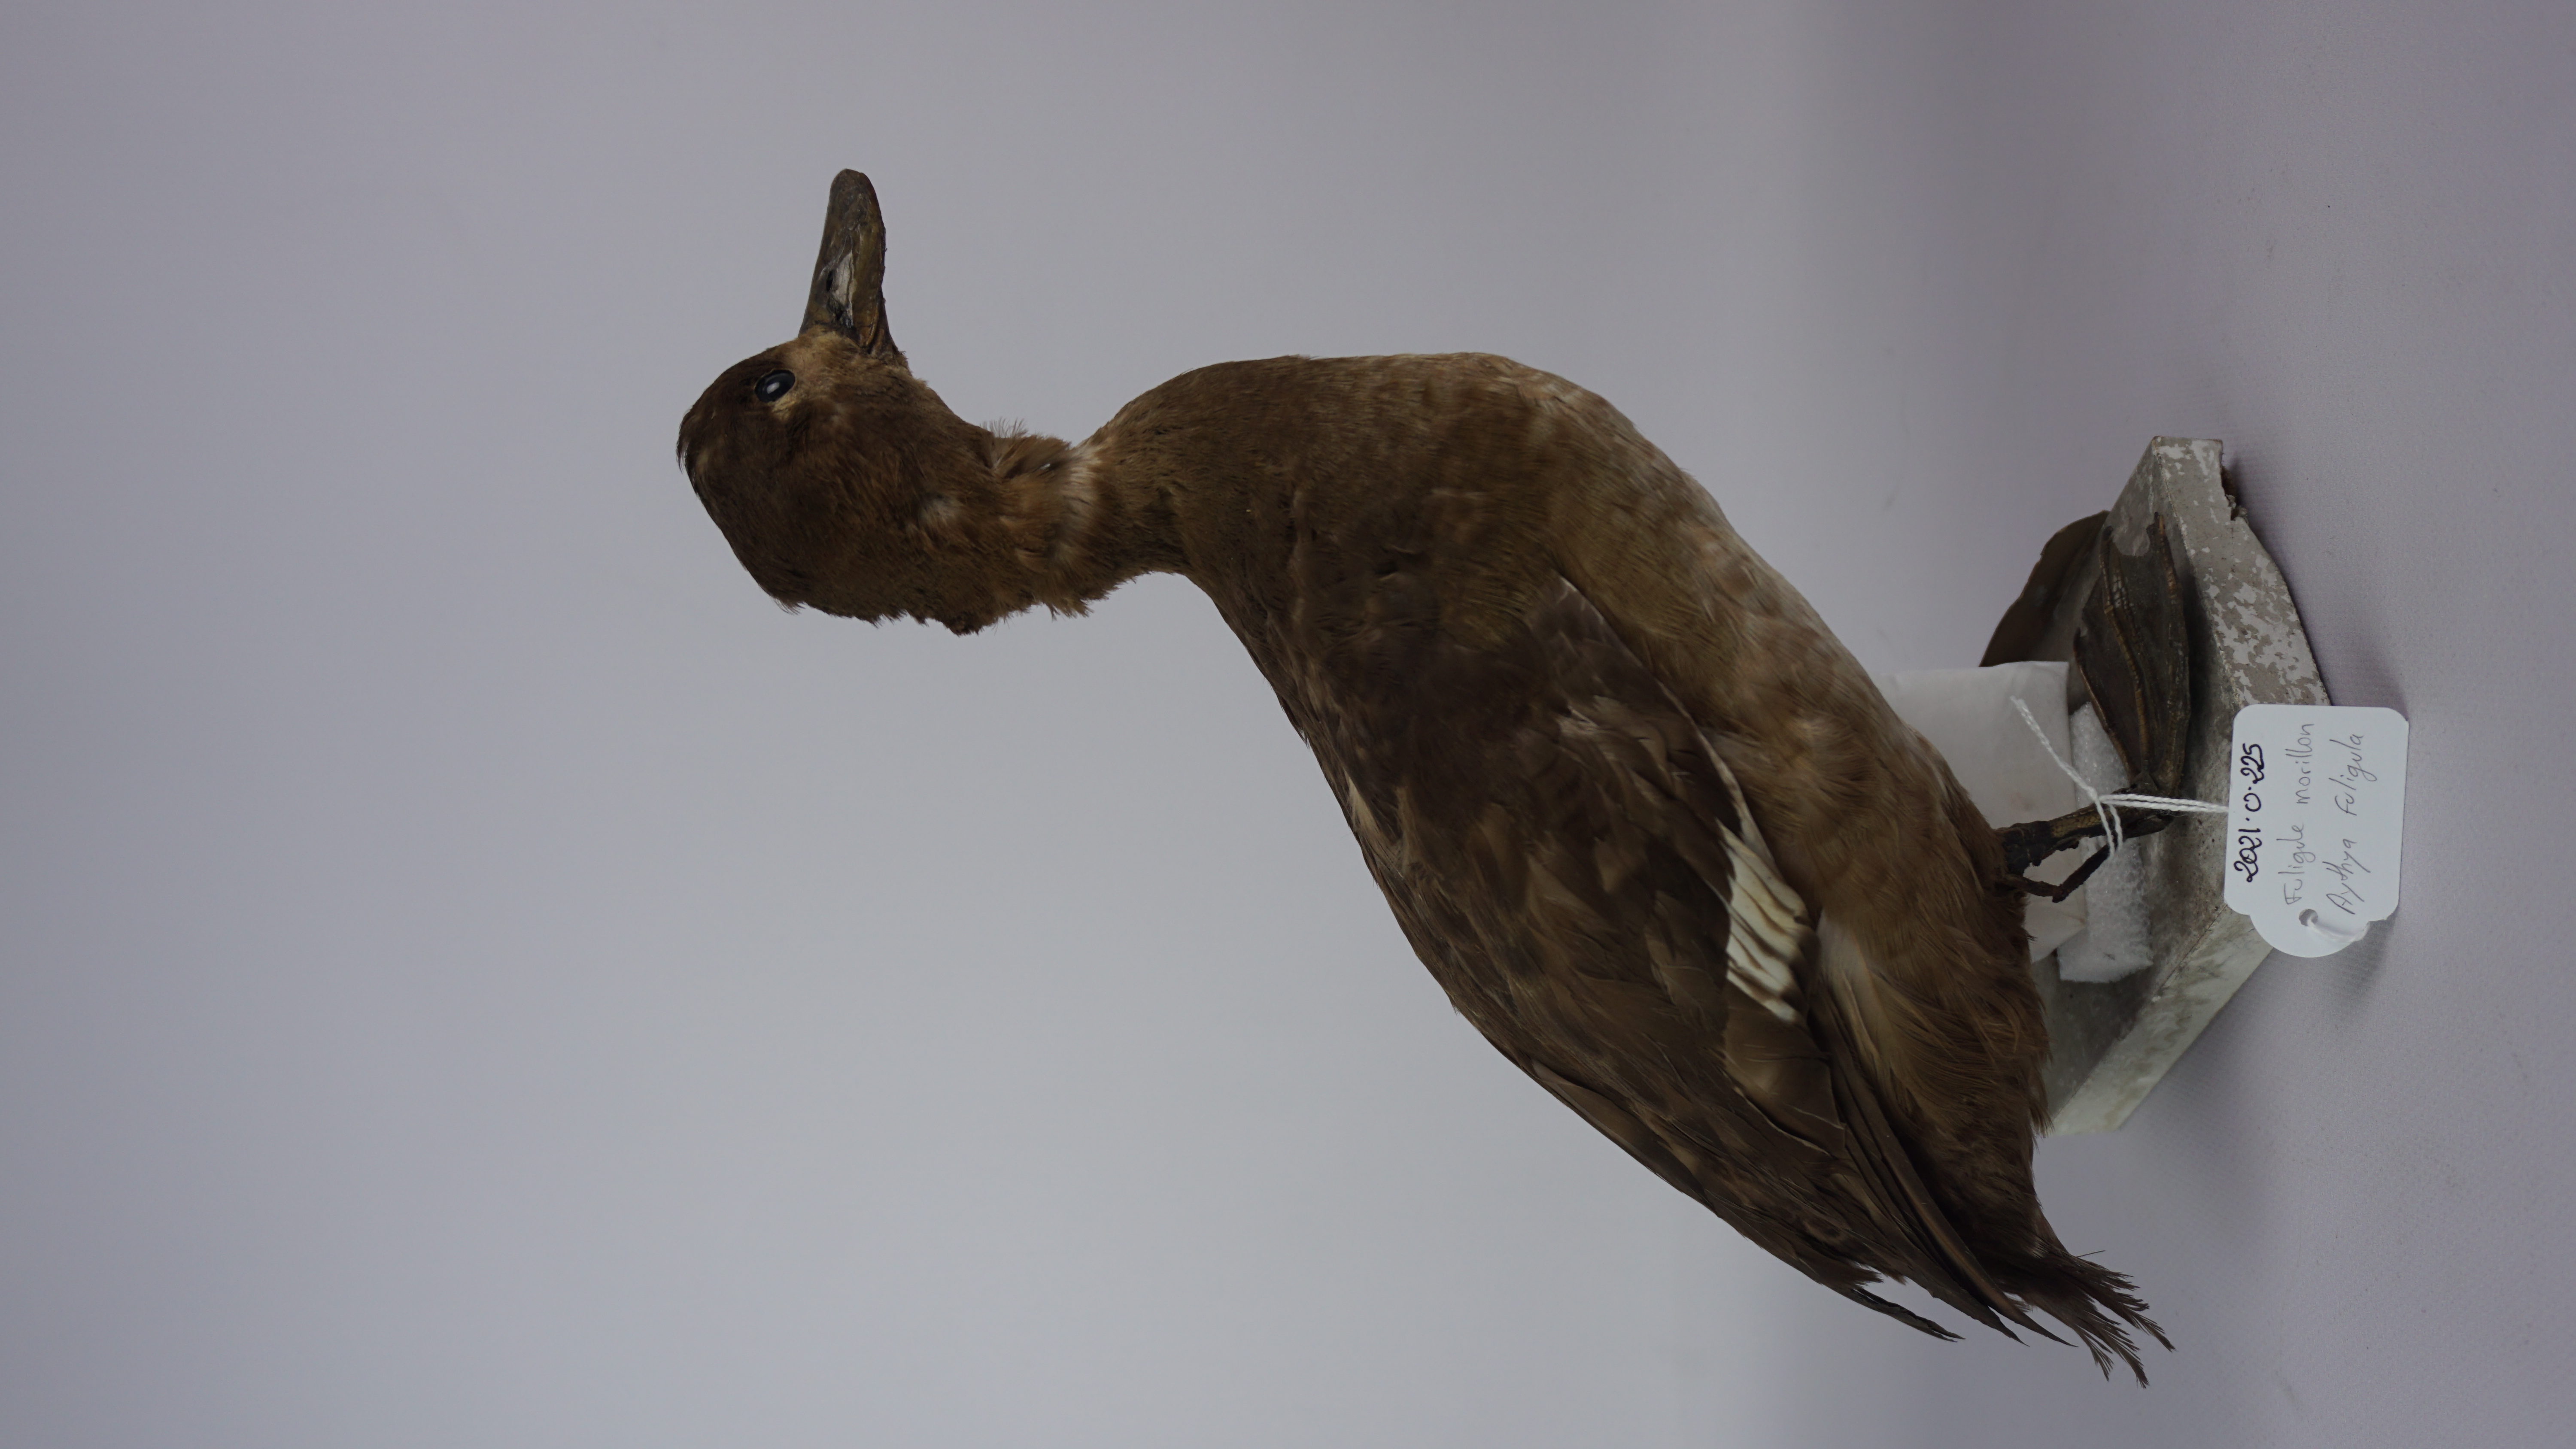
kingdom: Animalia
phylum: Chordata
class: Aves
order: Anseriformes
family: Anatidae
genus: Aythya
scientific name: Aythya fuligula
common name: Tufted duck
